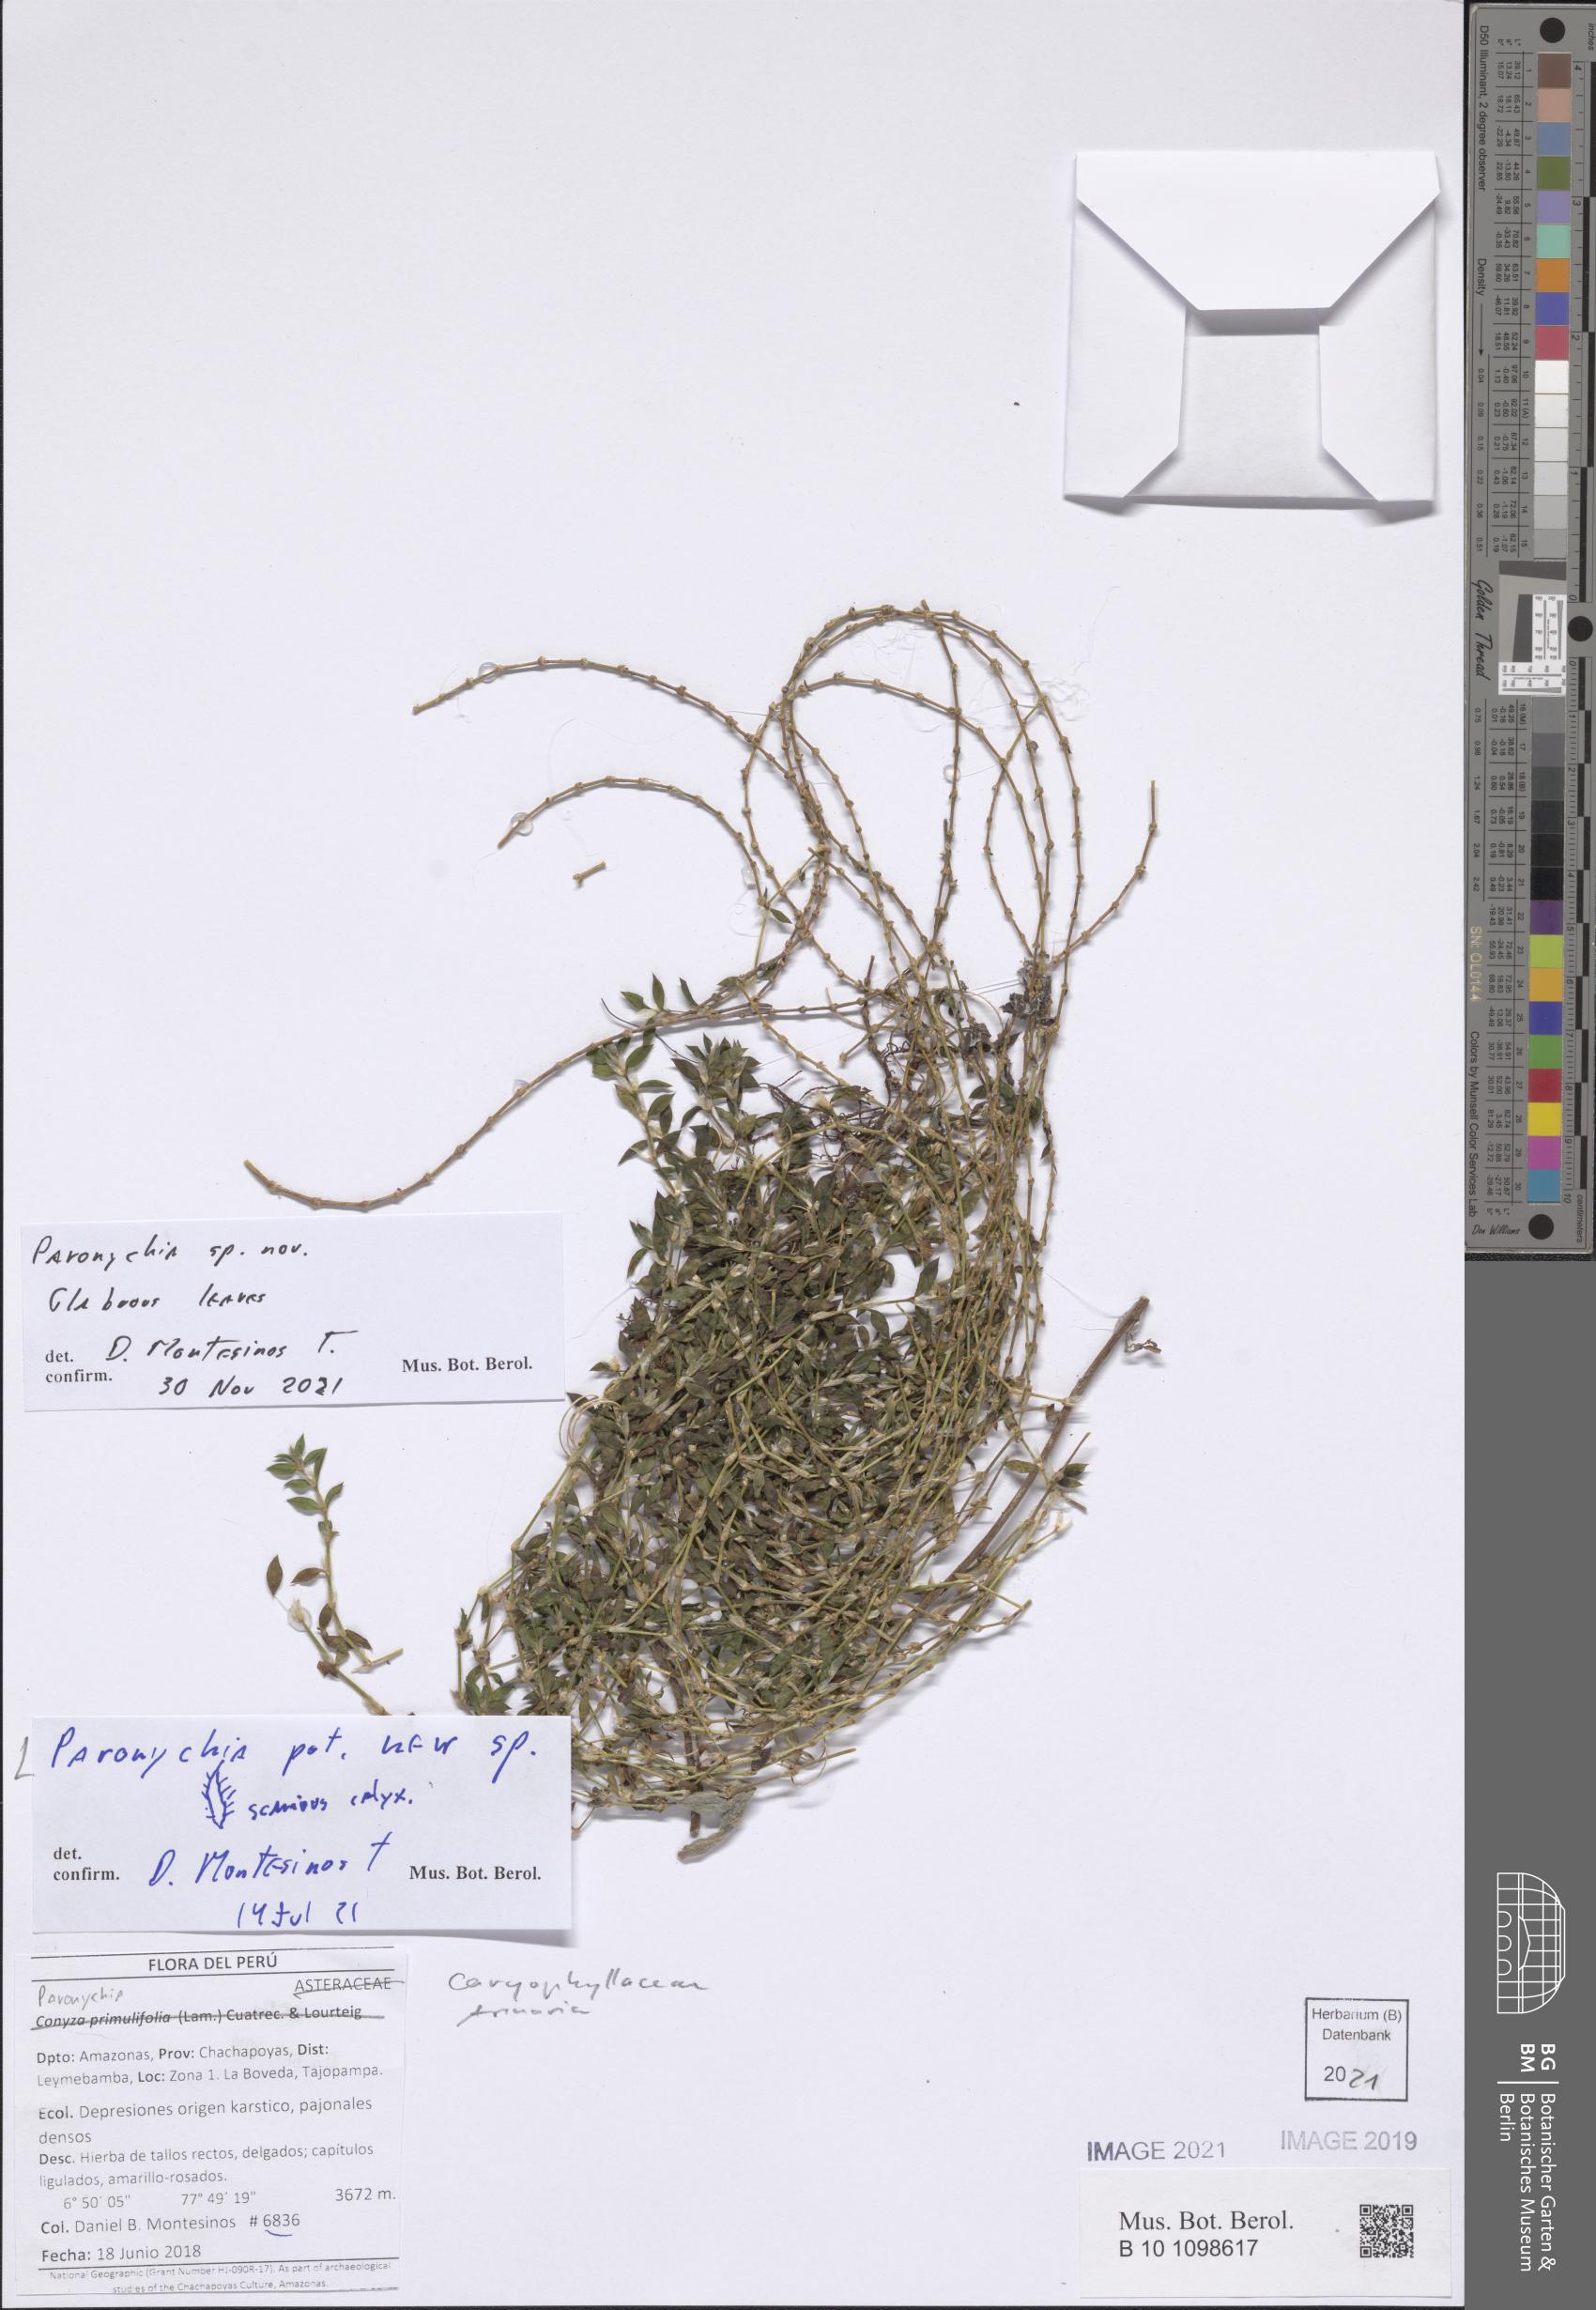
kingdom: Plantae
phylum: Tracheophyta
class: Magnoliopsida
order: Caryophyllales
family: Caryophyllaceae
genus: Paronychia
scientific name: Paronychia
